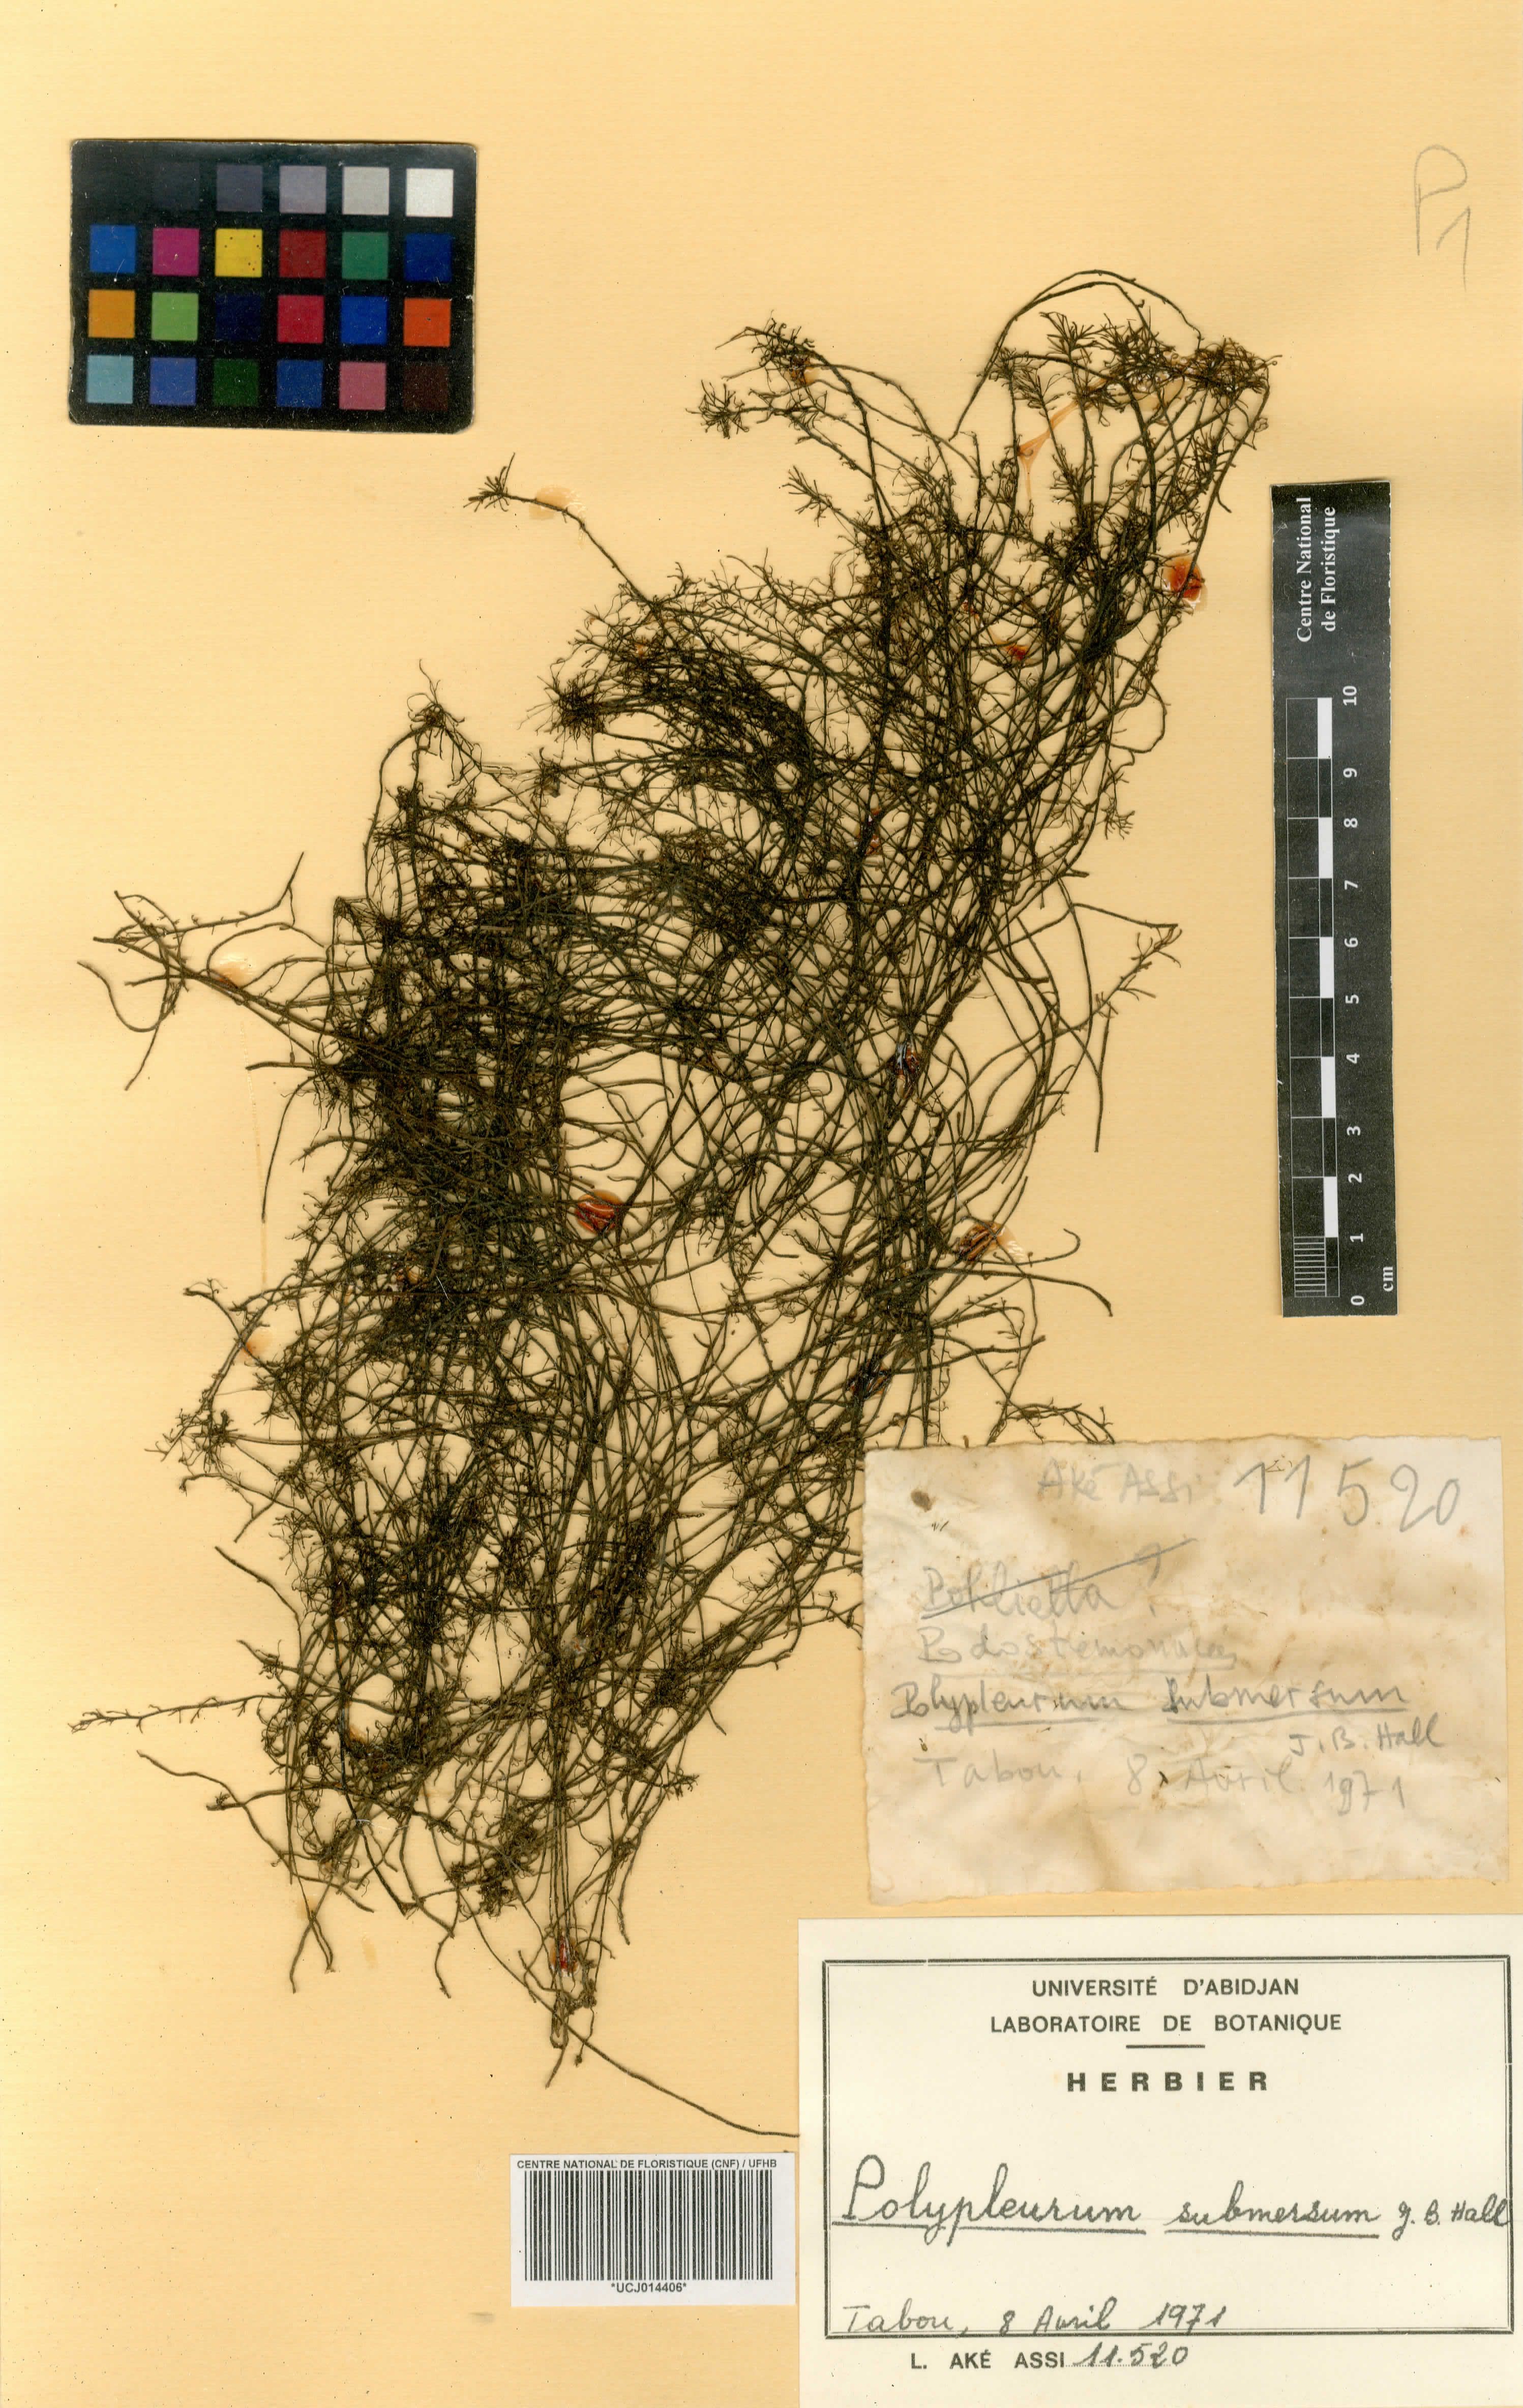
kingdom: Plantae
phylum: Tracheophyta
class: Magnoliopsida
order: Malpighiales
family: Podostemaceae
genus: Saxicolella
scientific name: Saxicolella submersa
